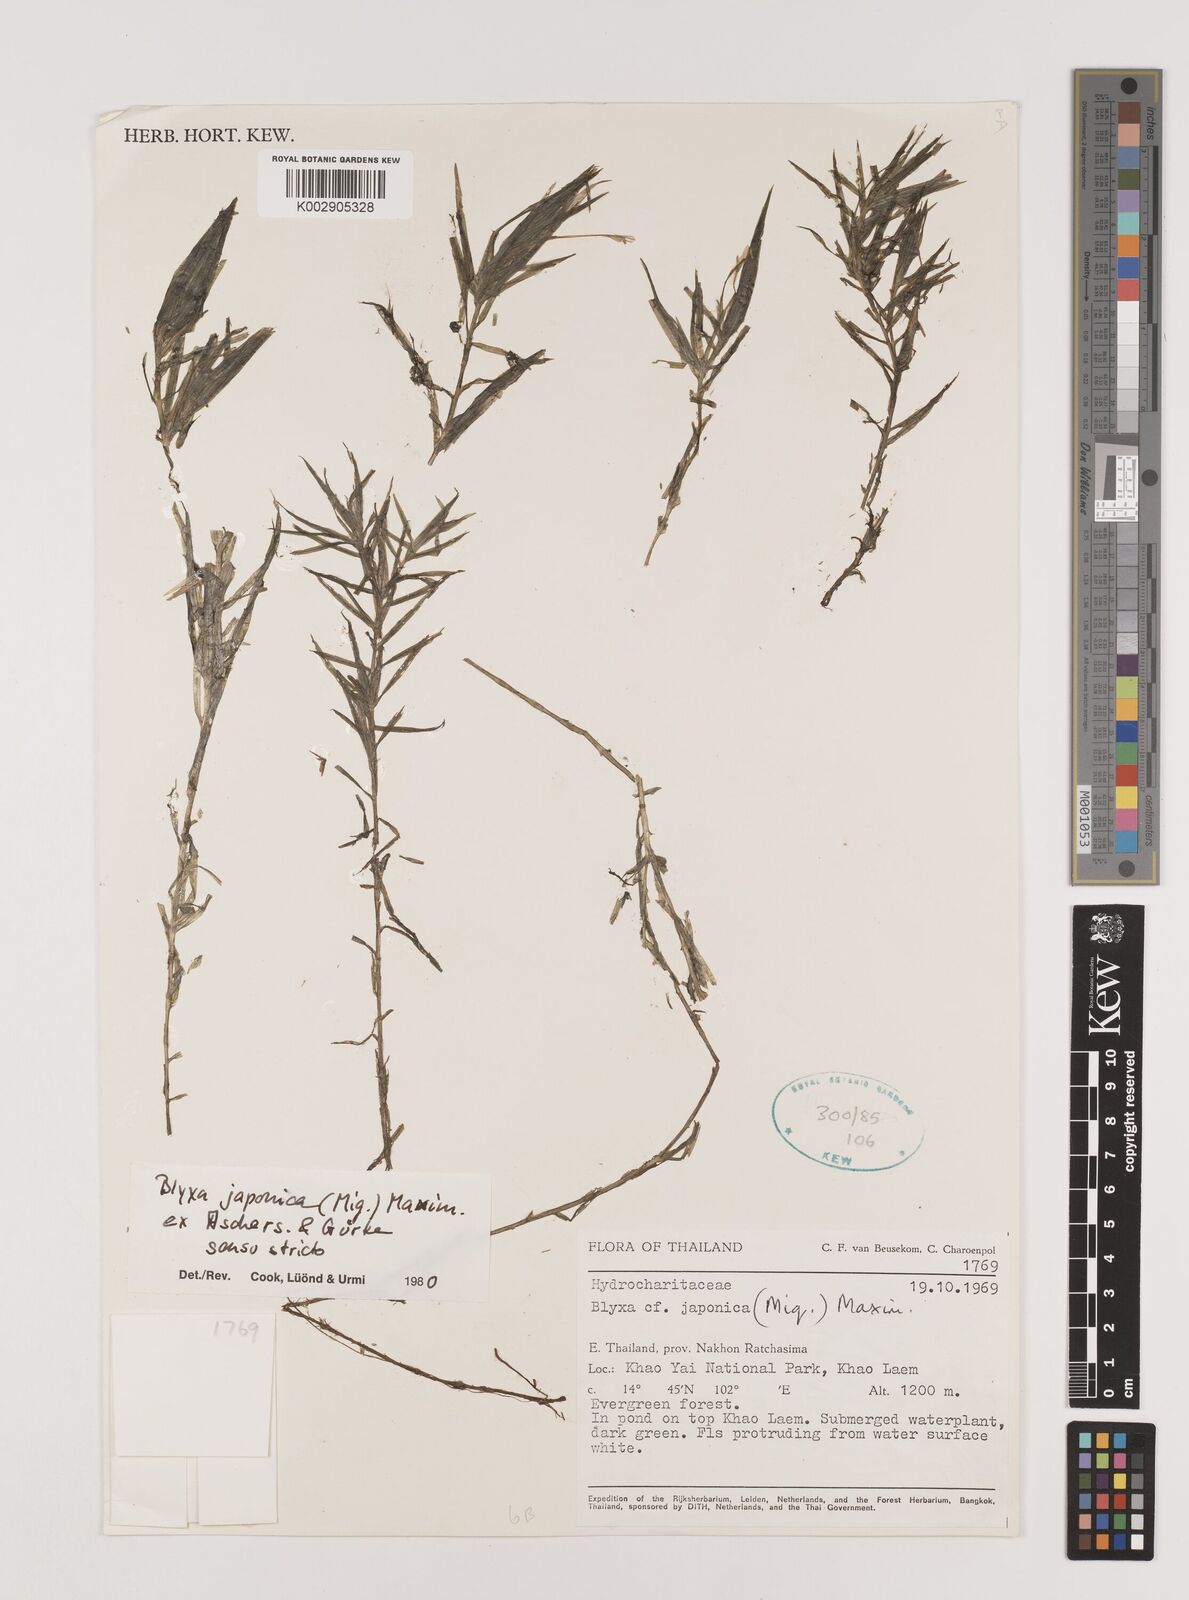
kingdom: Plantae
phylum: Tracheophyta
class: Liliopsida
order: Alismatales
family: Hydrocharitaceae
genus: Blyxa
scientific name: Blyxa japonica
